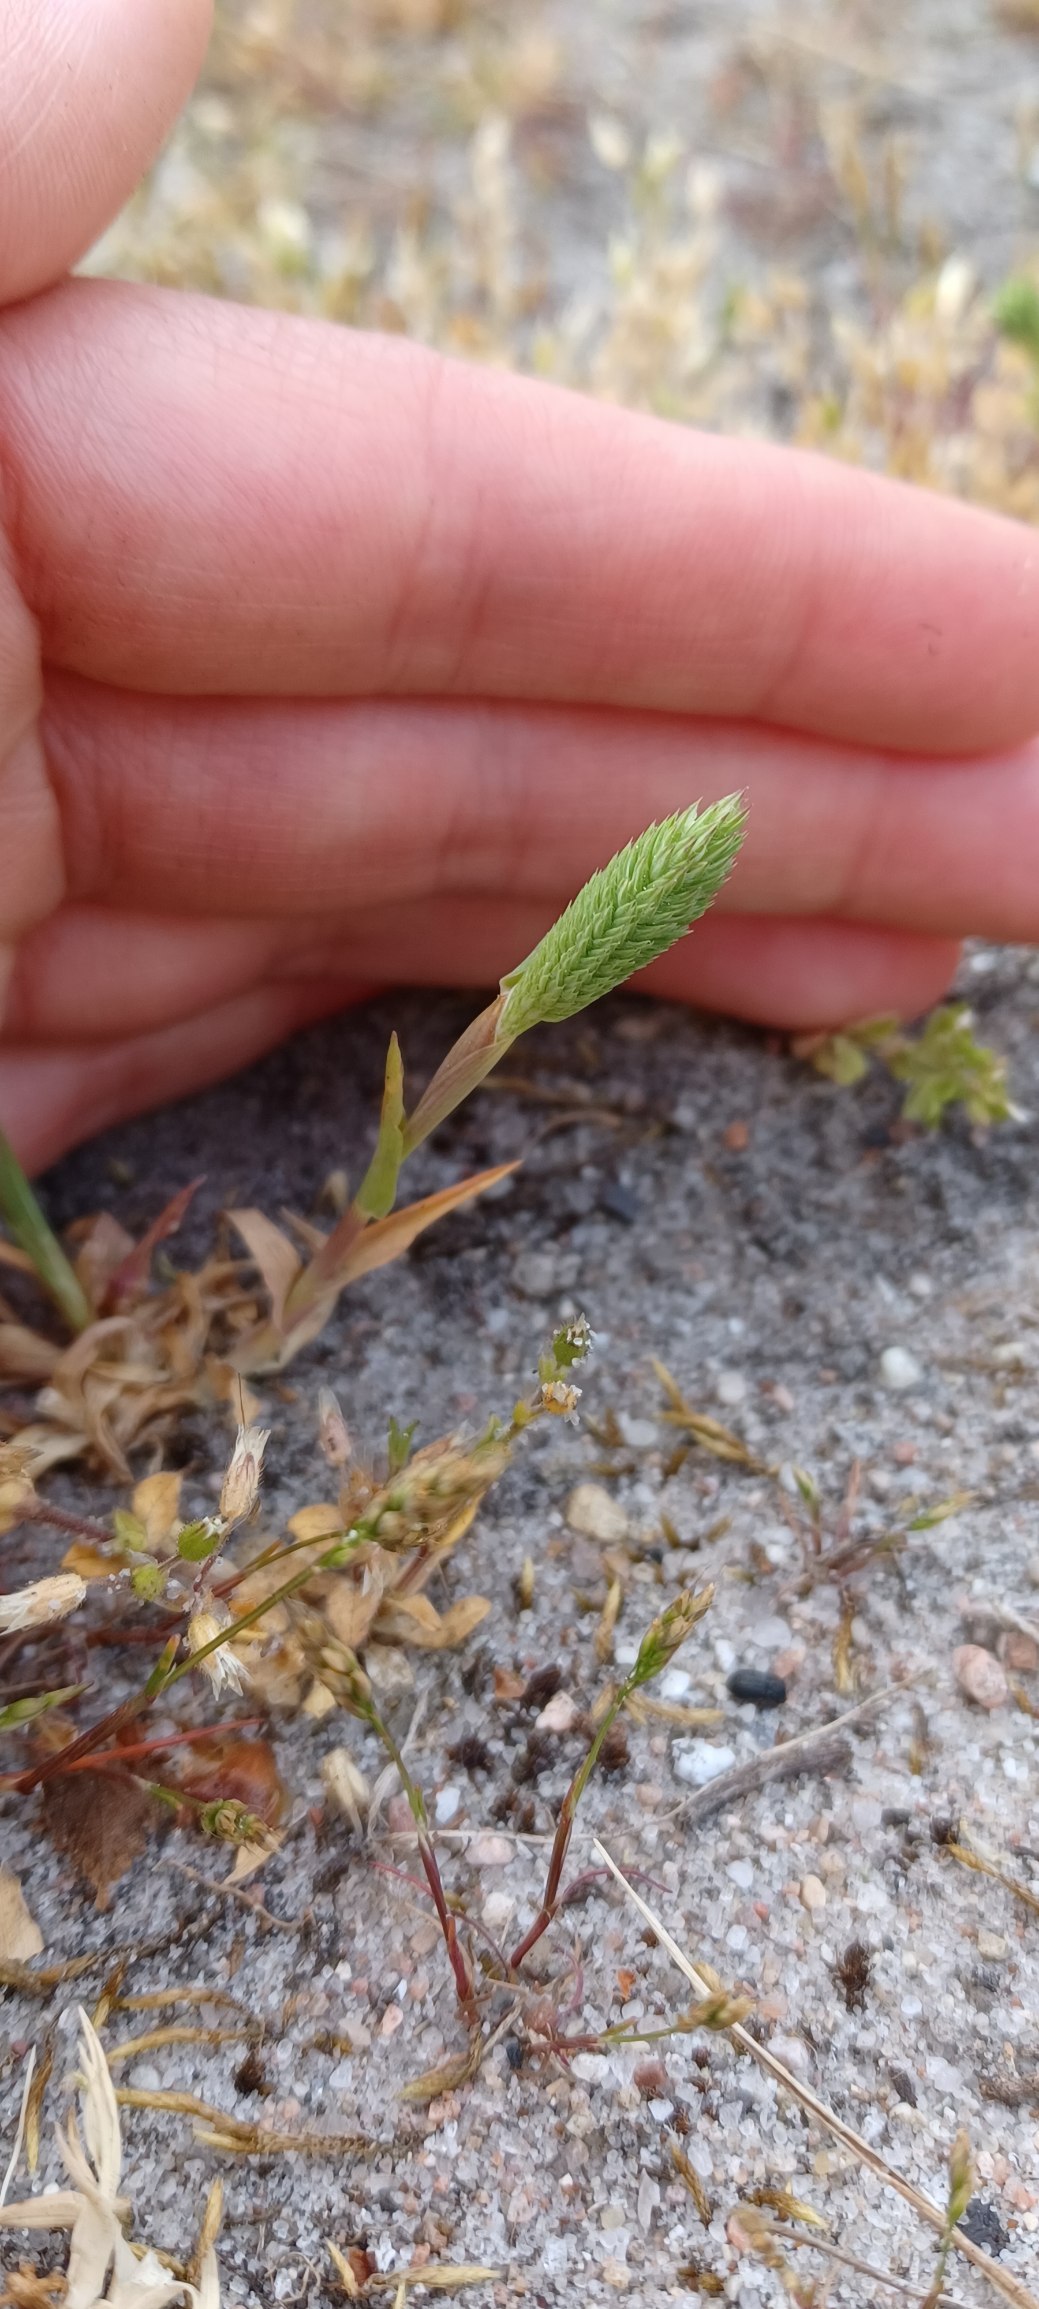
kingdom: Plantae
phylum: Tracheophyta
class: Liliopsida
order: Poales
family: Poaceae
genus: Phleum
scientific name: Phleum arenarium
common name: Sand-rottehale
